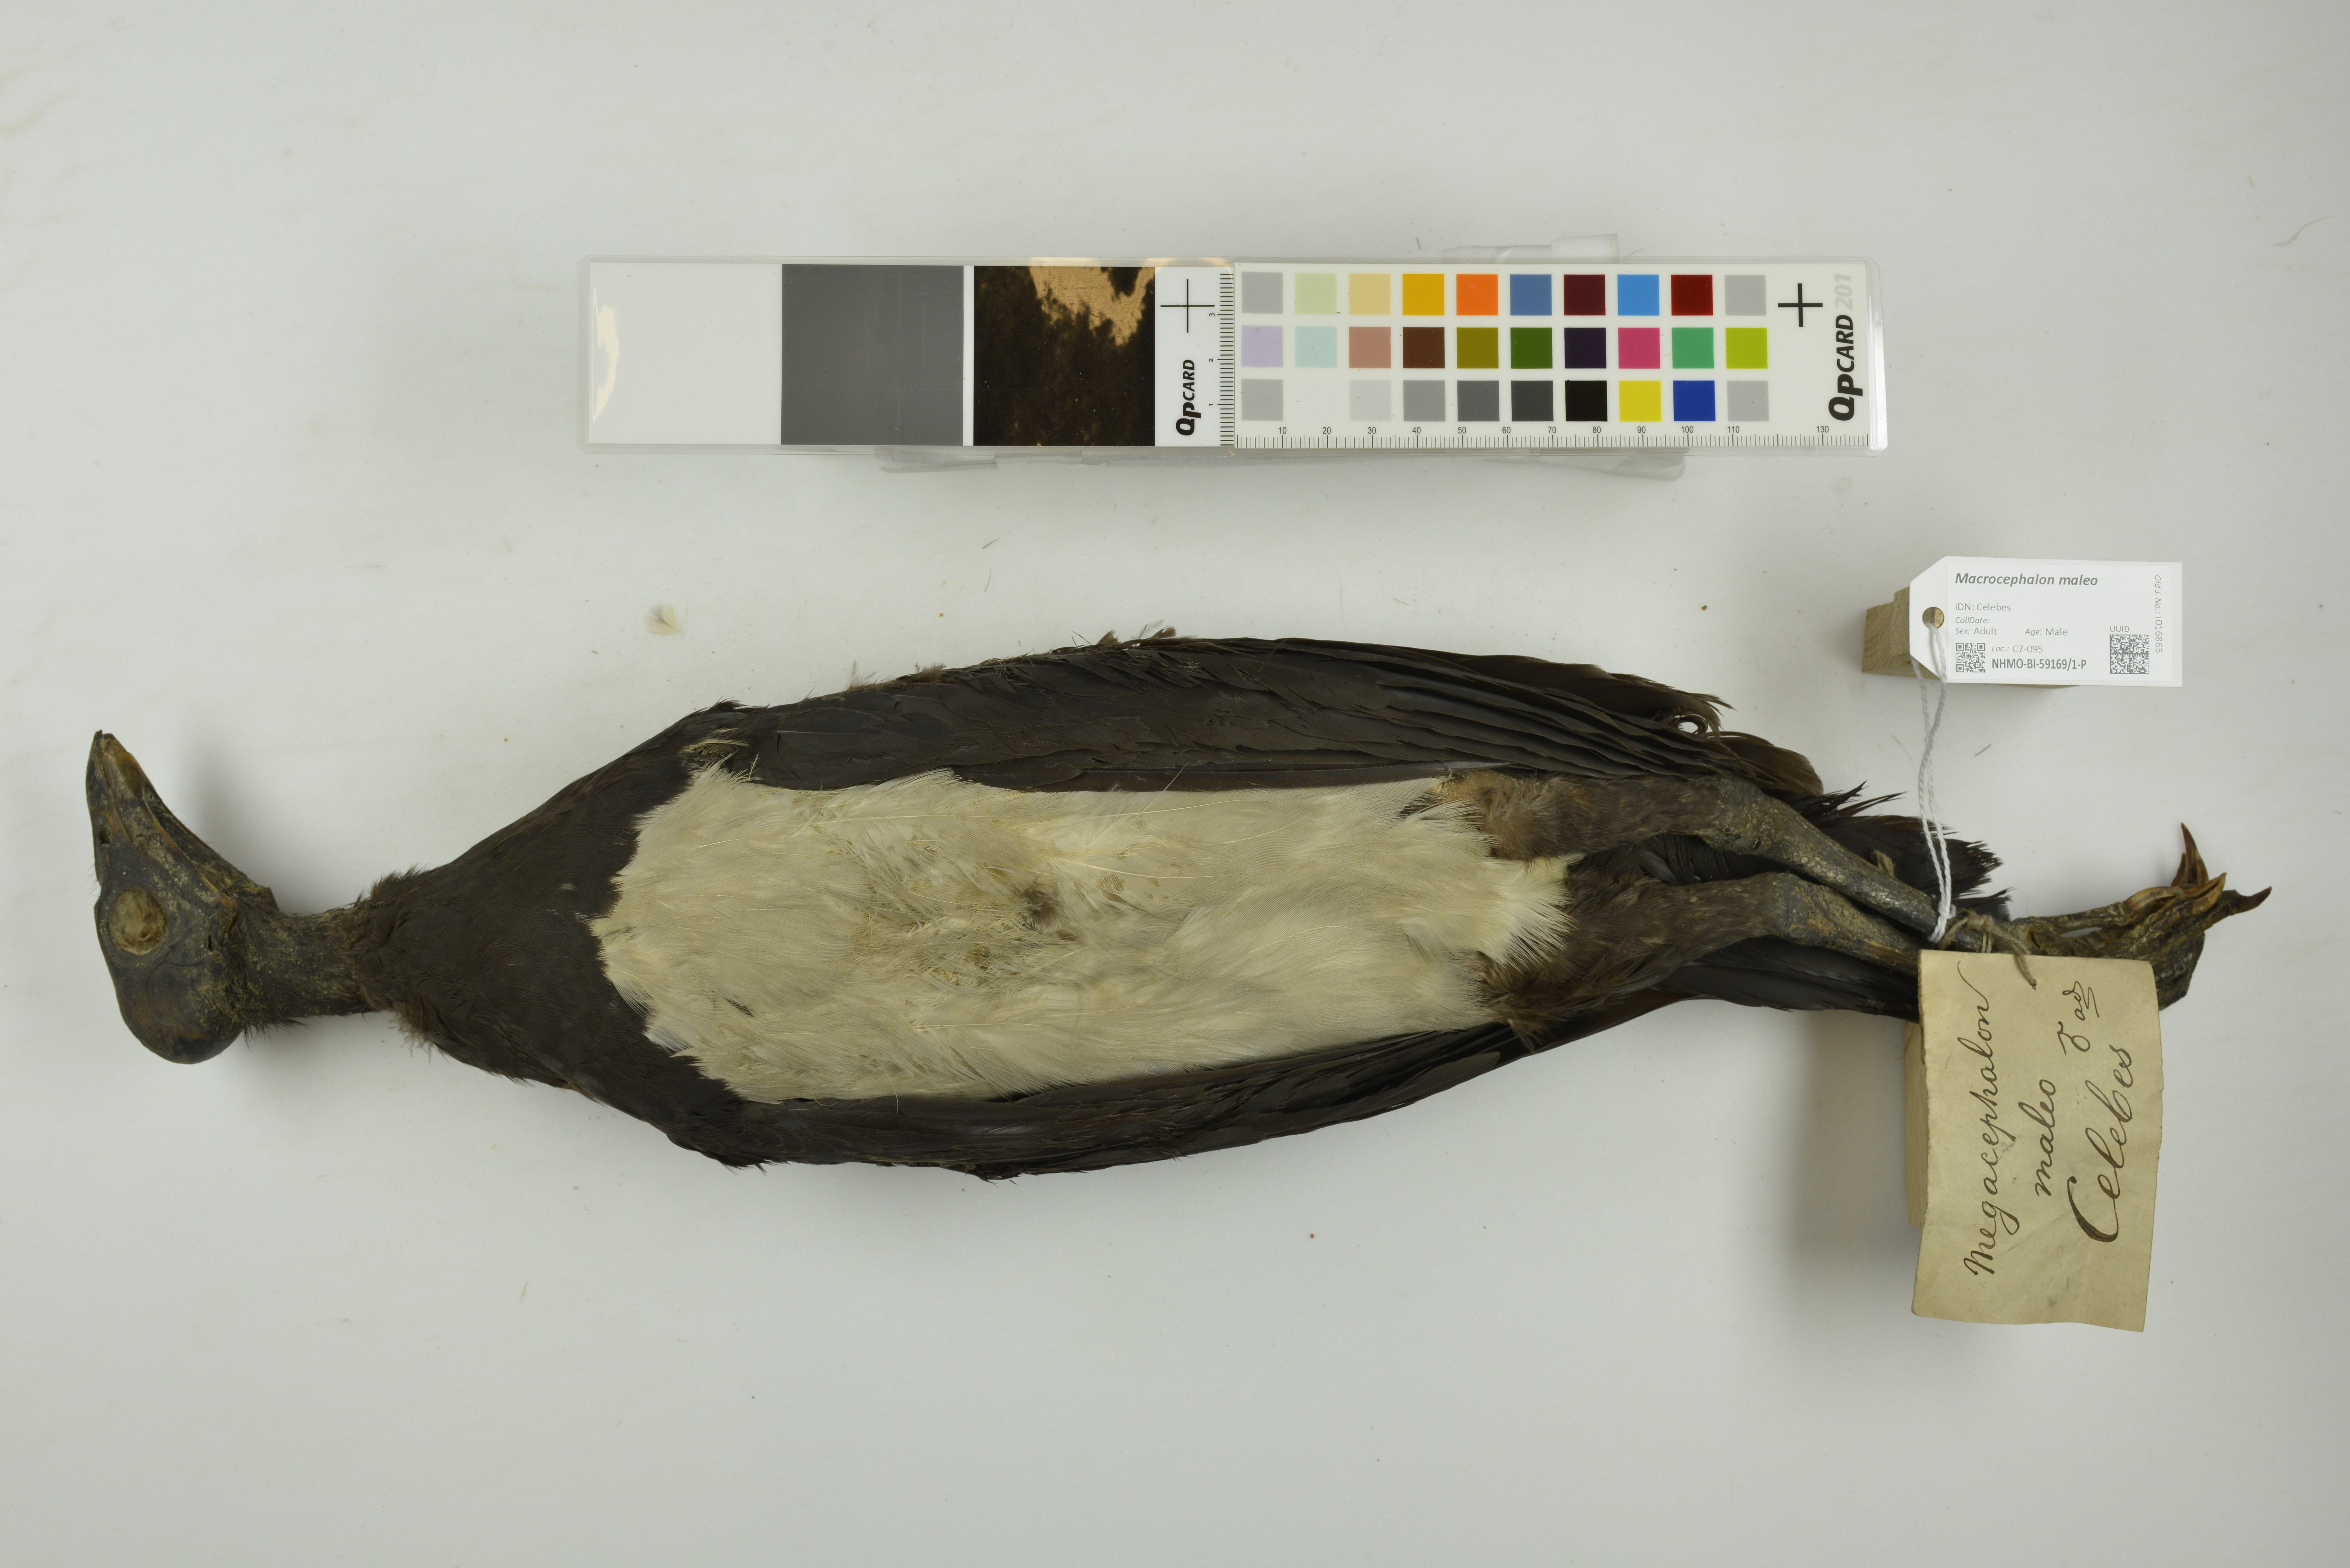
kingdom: Animalia
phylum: Chordata
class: Aves
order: Galliformes
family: Megapodiidae
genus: Macrocephalon
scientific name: Macrocephalon maleo
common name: Maleo
